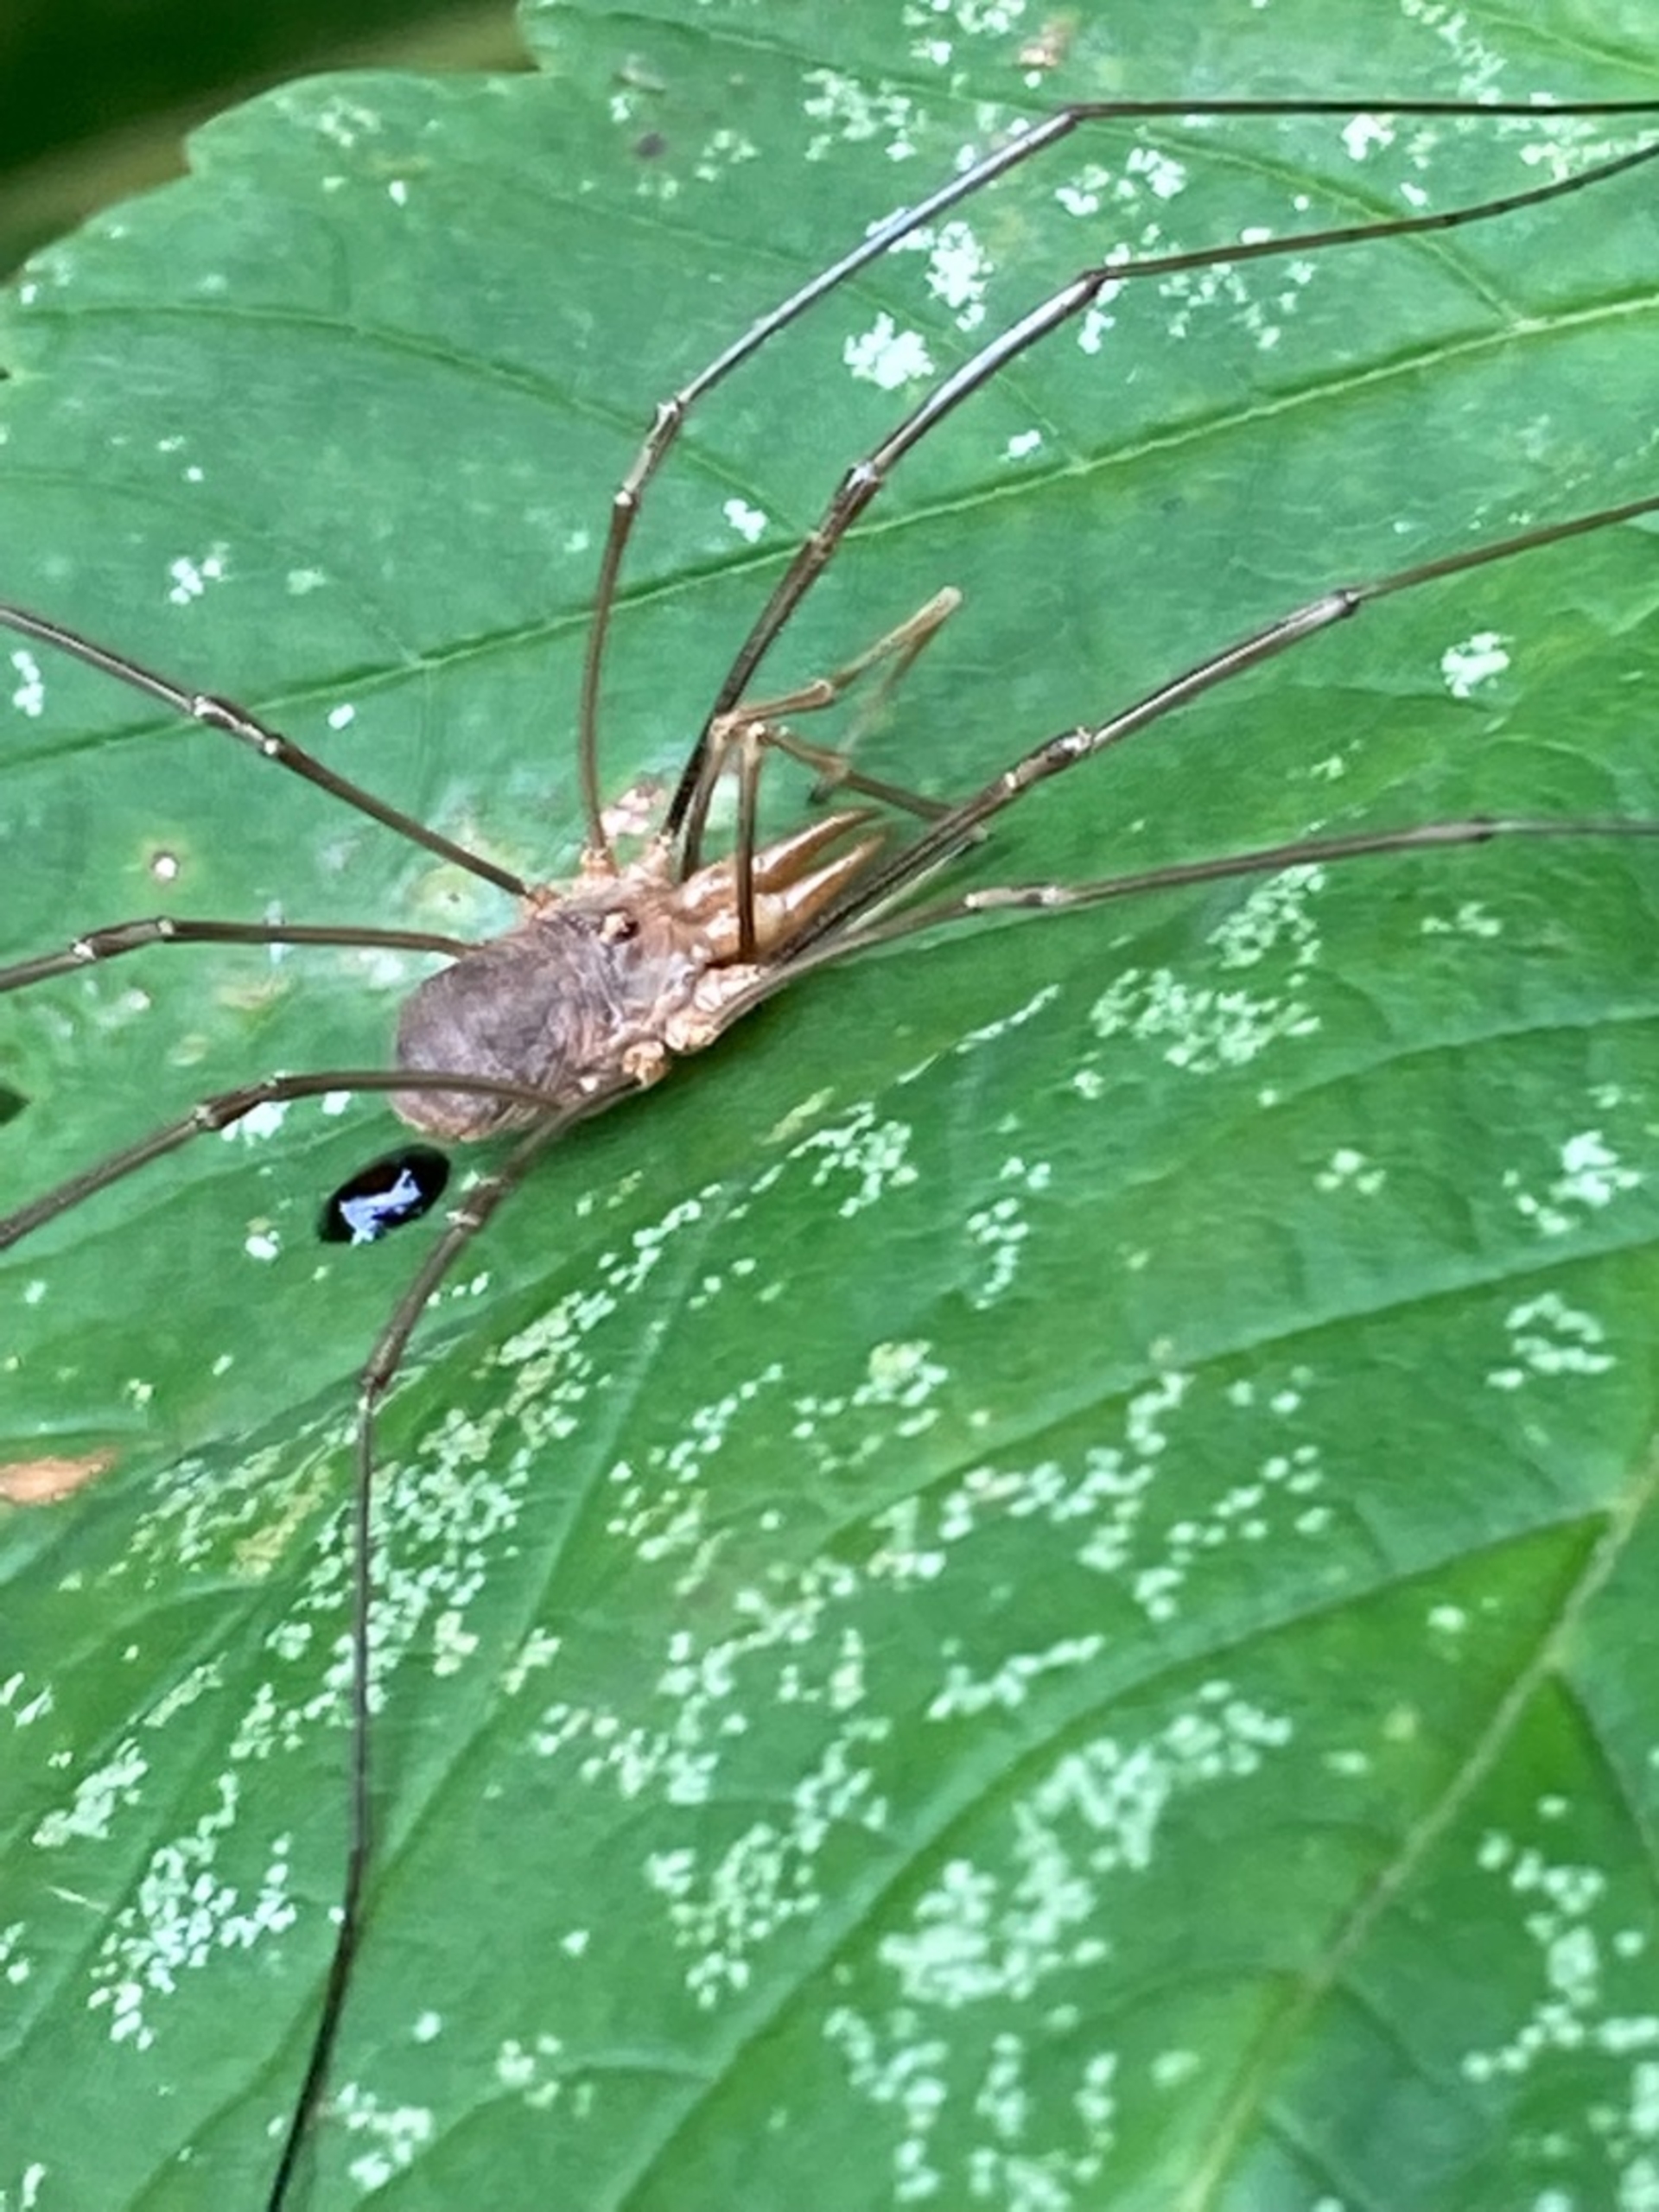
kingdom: Animalia
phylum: Arthropoda
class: Arachnida
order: Opiliones
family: Phalangiidae
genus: Phalangium
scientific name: Phalangium opilio
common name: Hornmejer
